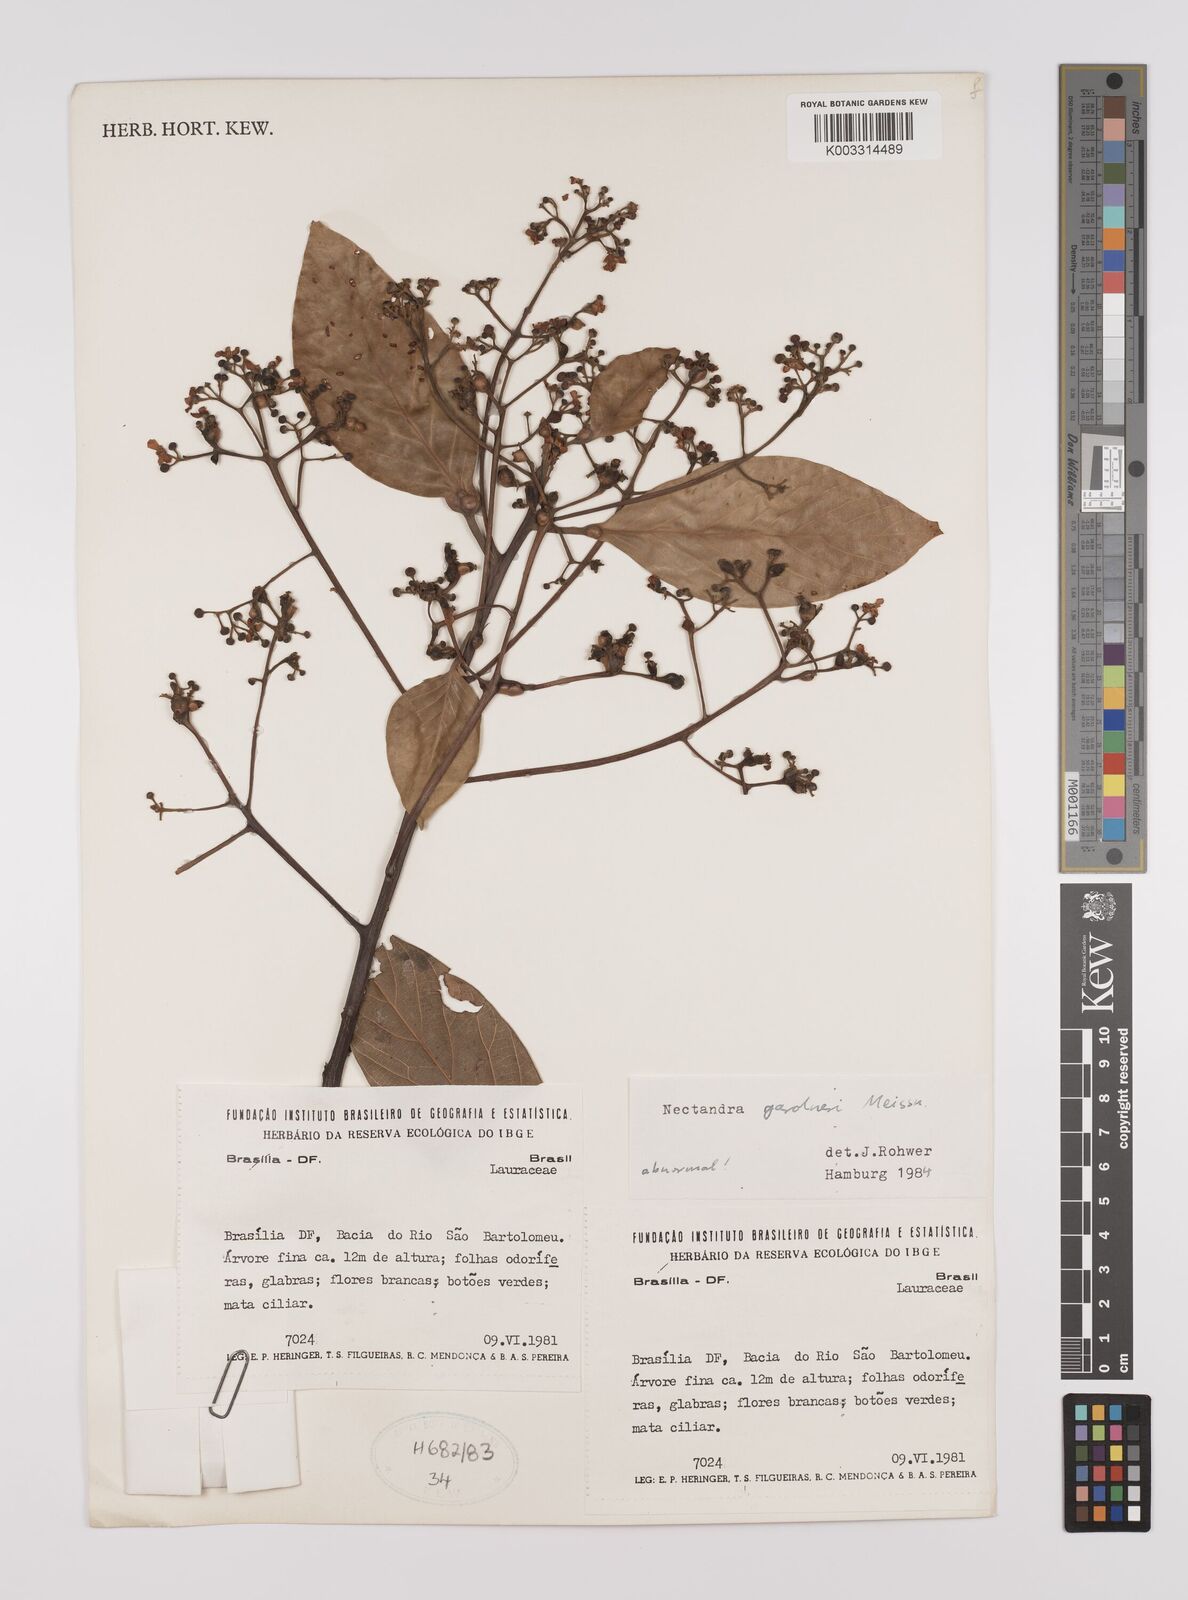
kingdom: Plantae
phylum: Tracheophyta
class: Magnoliopsida
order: Laurales
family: Lauraceae
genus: Nectandra
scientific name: Nectandra gardneri
